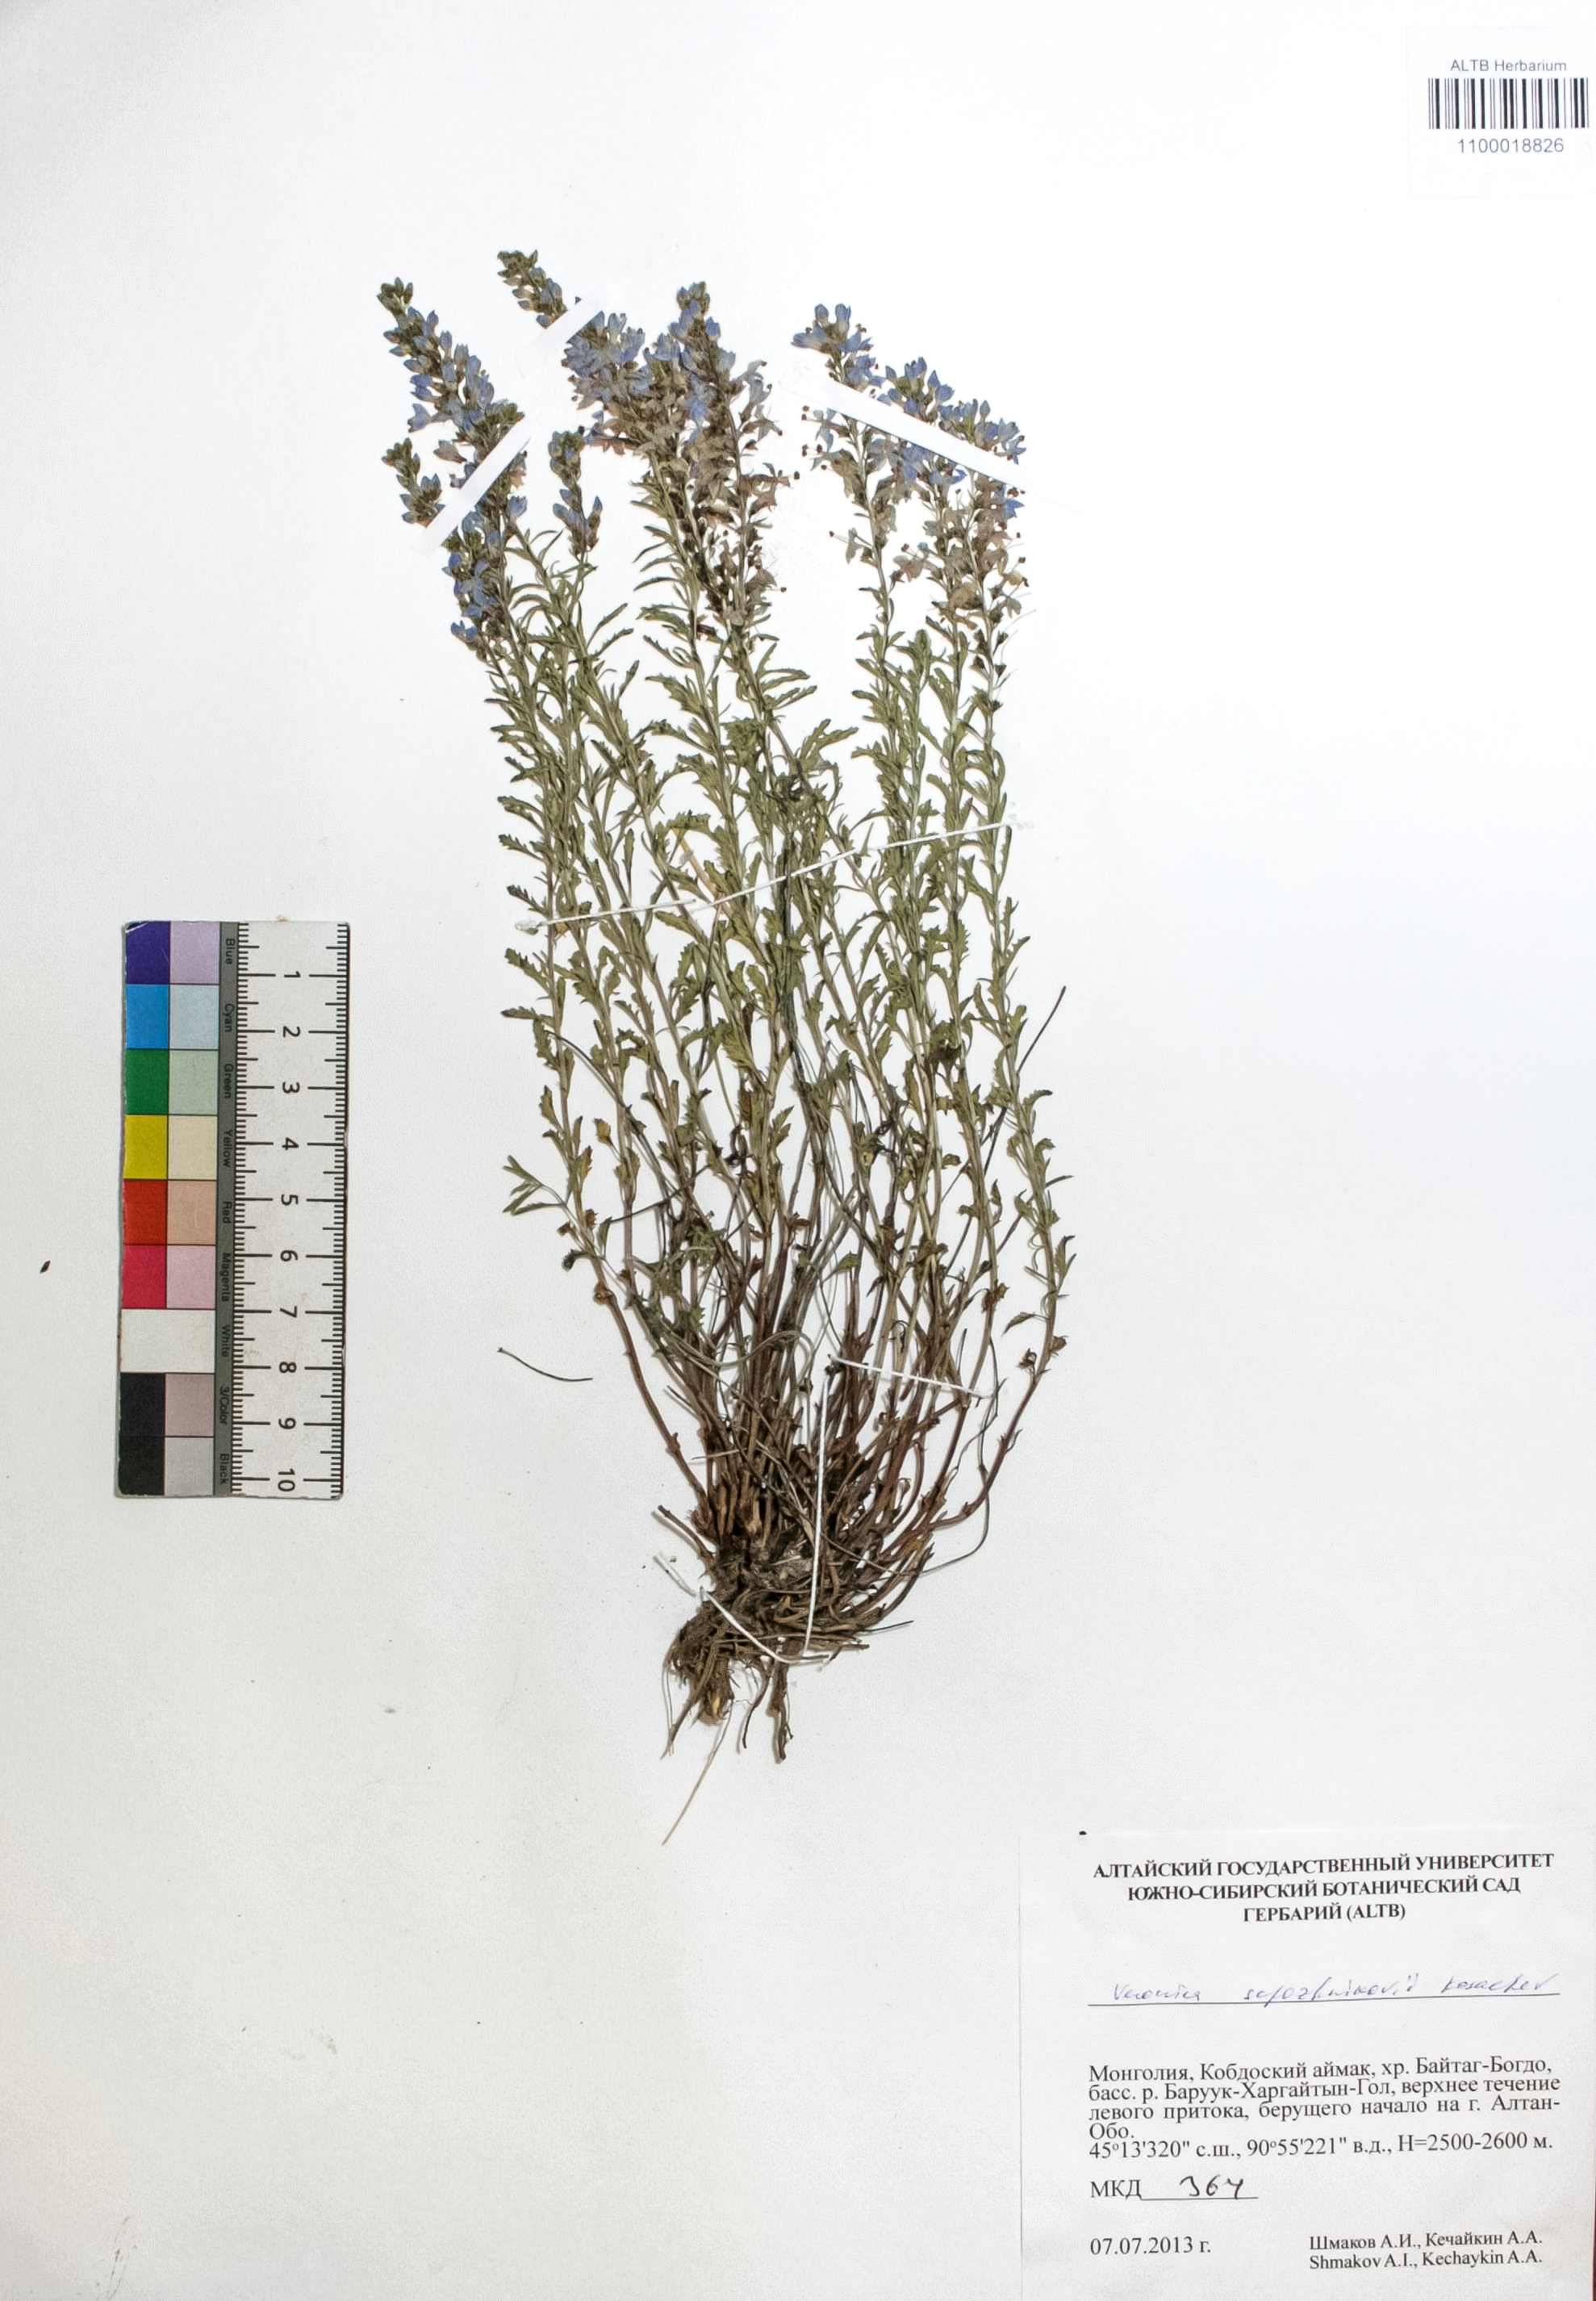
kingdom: Plantae
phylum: Tracheophyta
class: Magnoliopsida
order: Lamiales
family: Plantaginaceae
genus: Veronica
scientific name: Veronica sapozhnikovii
